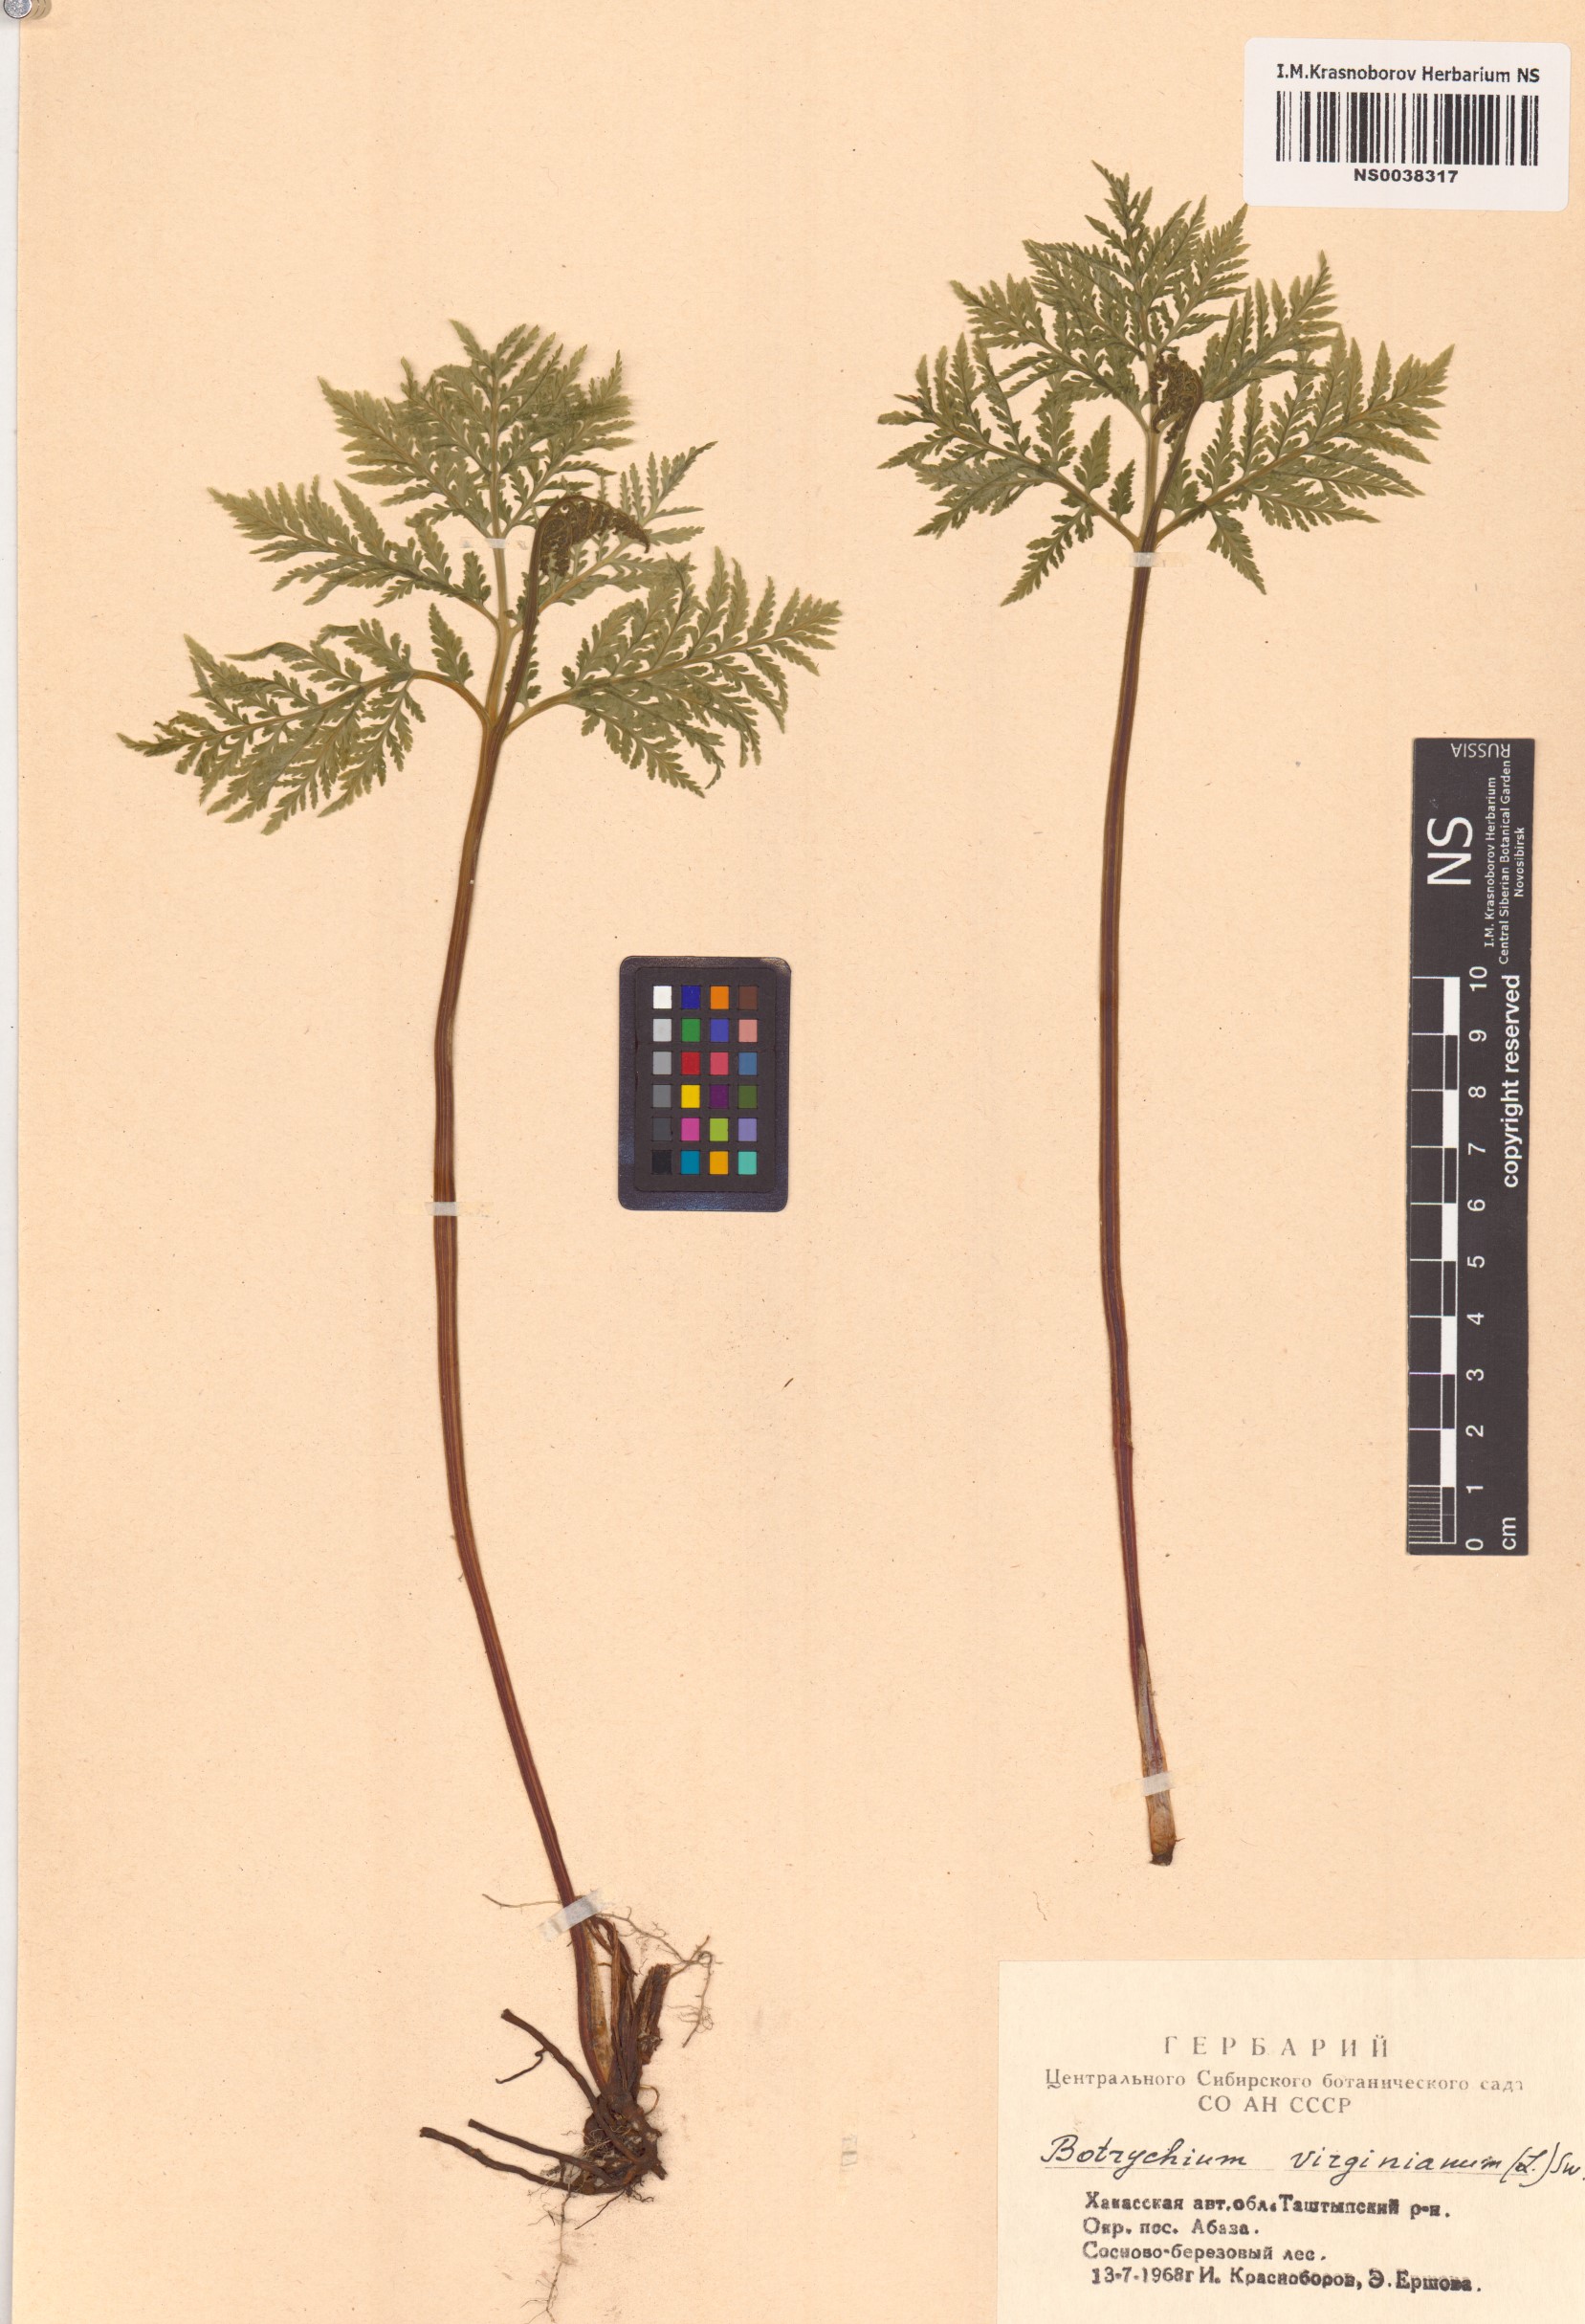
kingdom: Plantae
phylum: Tracheophyta
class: Polypodiopsida
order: Ophioglossales
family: Ophioglossaceae
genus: Botrypus
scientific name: Botrypus virginianus
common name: Common grapefern
